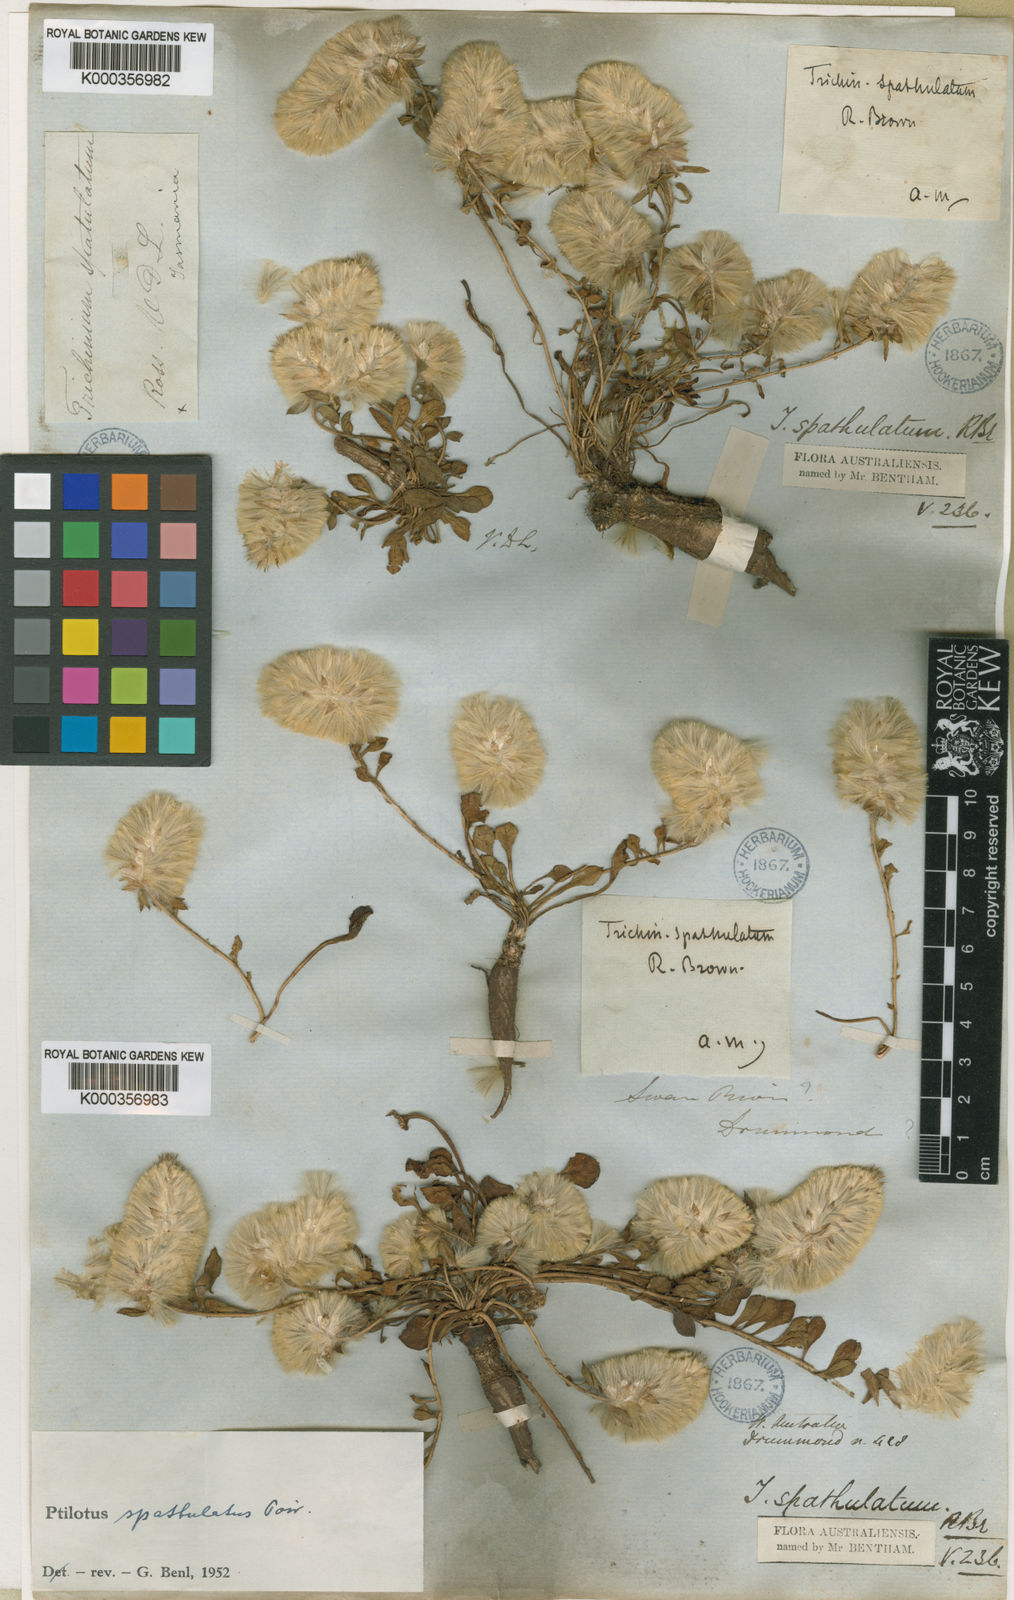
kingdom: Plantae
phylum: Tracheophyta
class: Magnoliopsida
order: Caryophyllales
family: Amaranthaceae
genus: Ptilotus
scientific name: Ptilotus spathulatus
